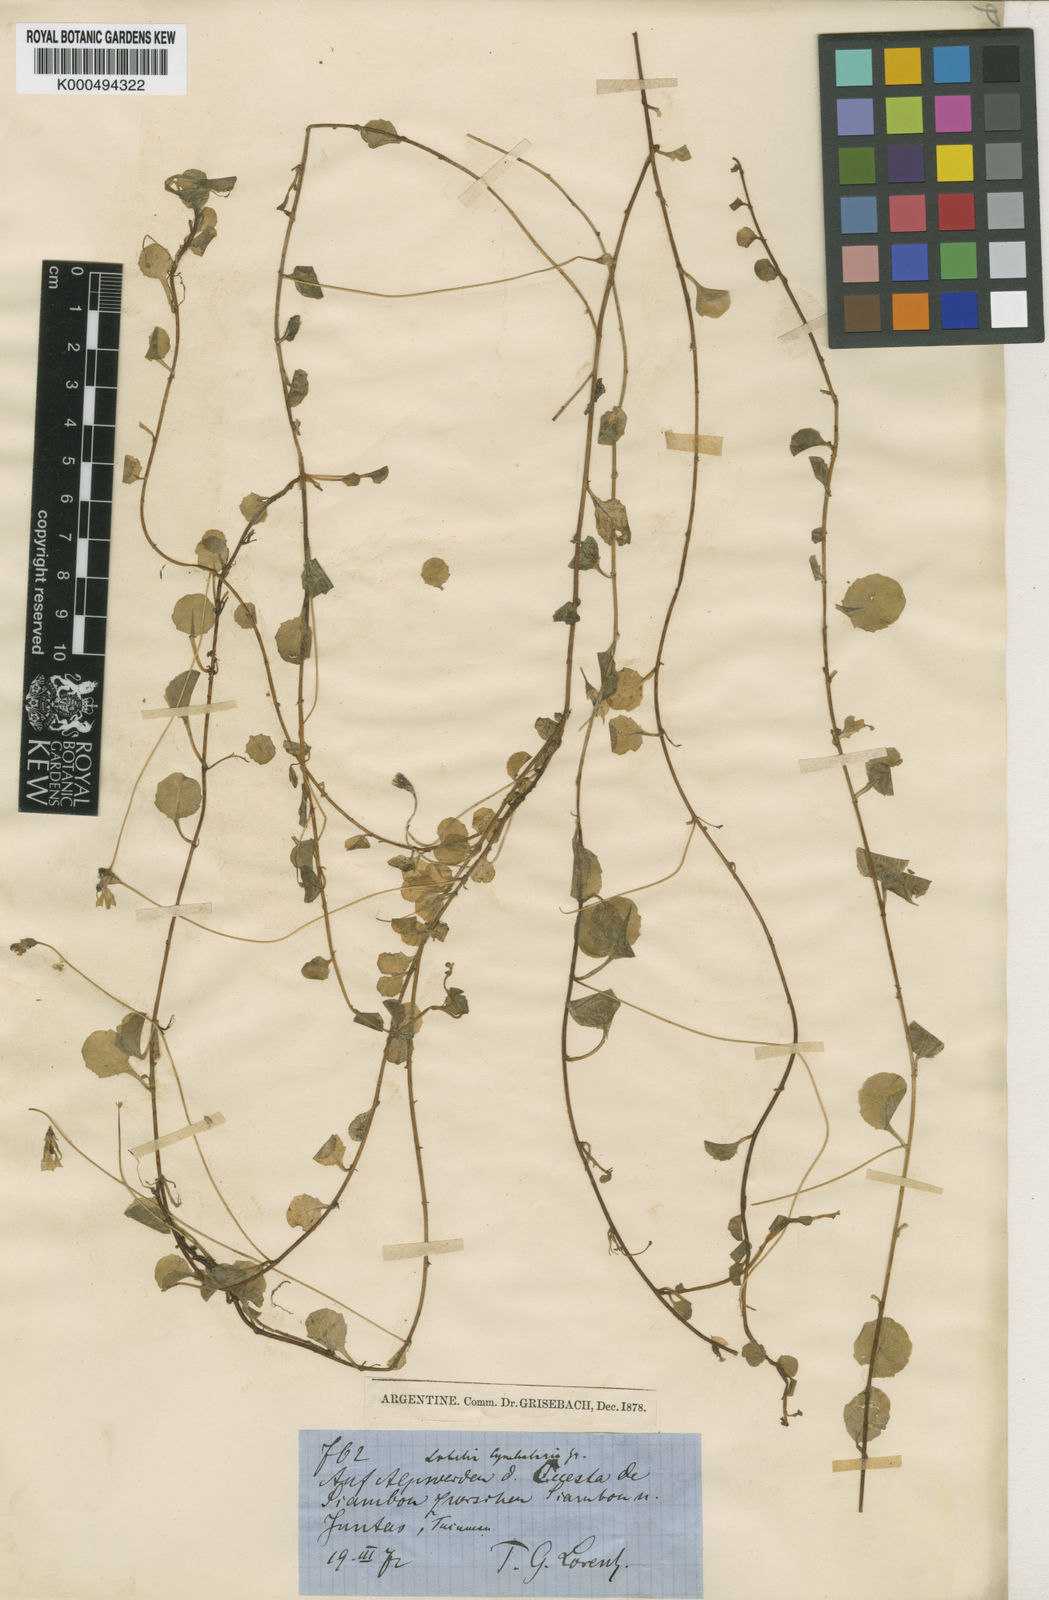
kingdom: Plantae
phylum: Tracheophyta
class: Magnoliopsida
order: Asterales
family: Campanulaceae
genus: Lobelia
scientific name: Lobelia nana
